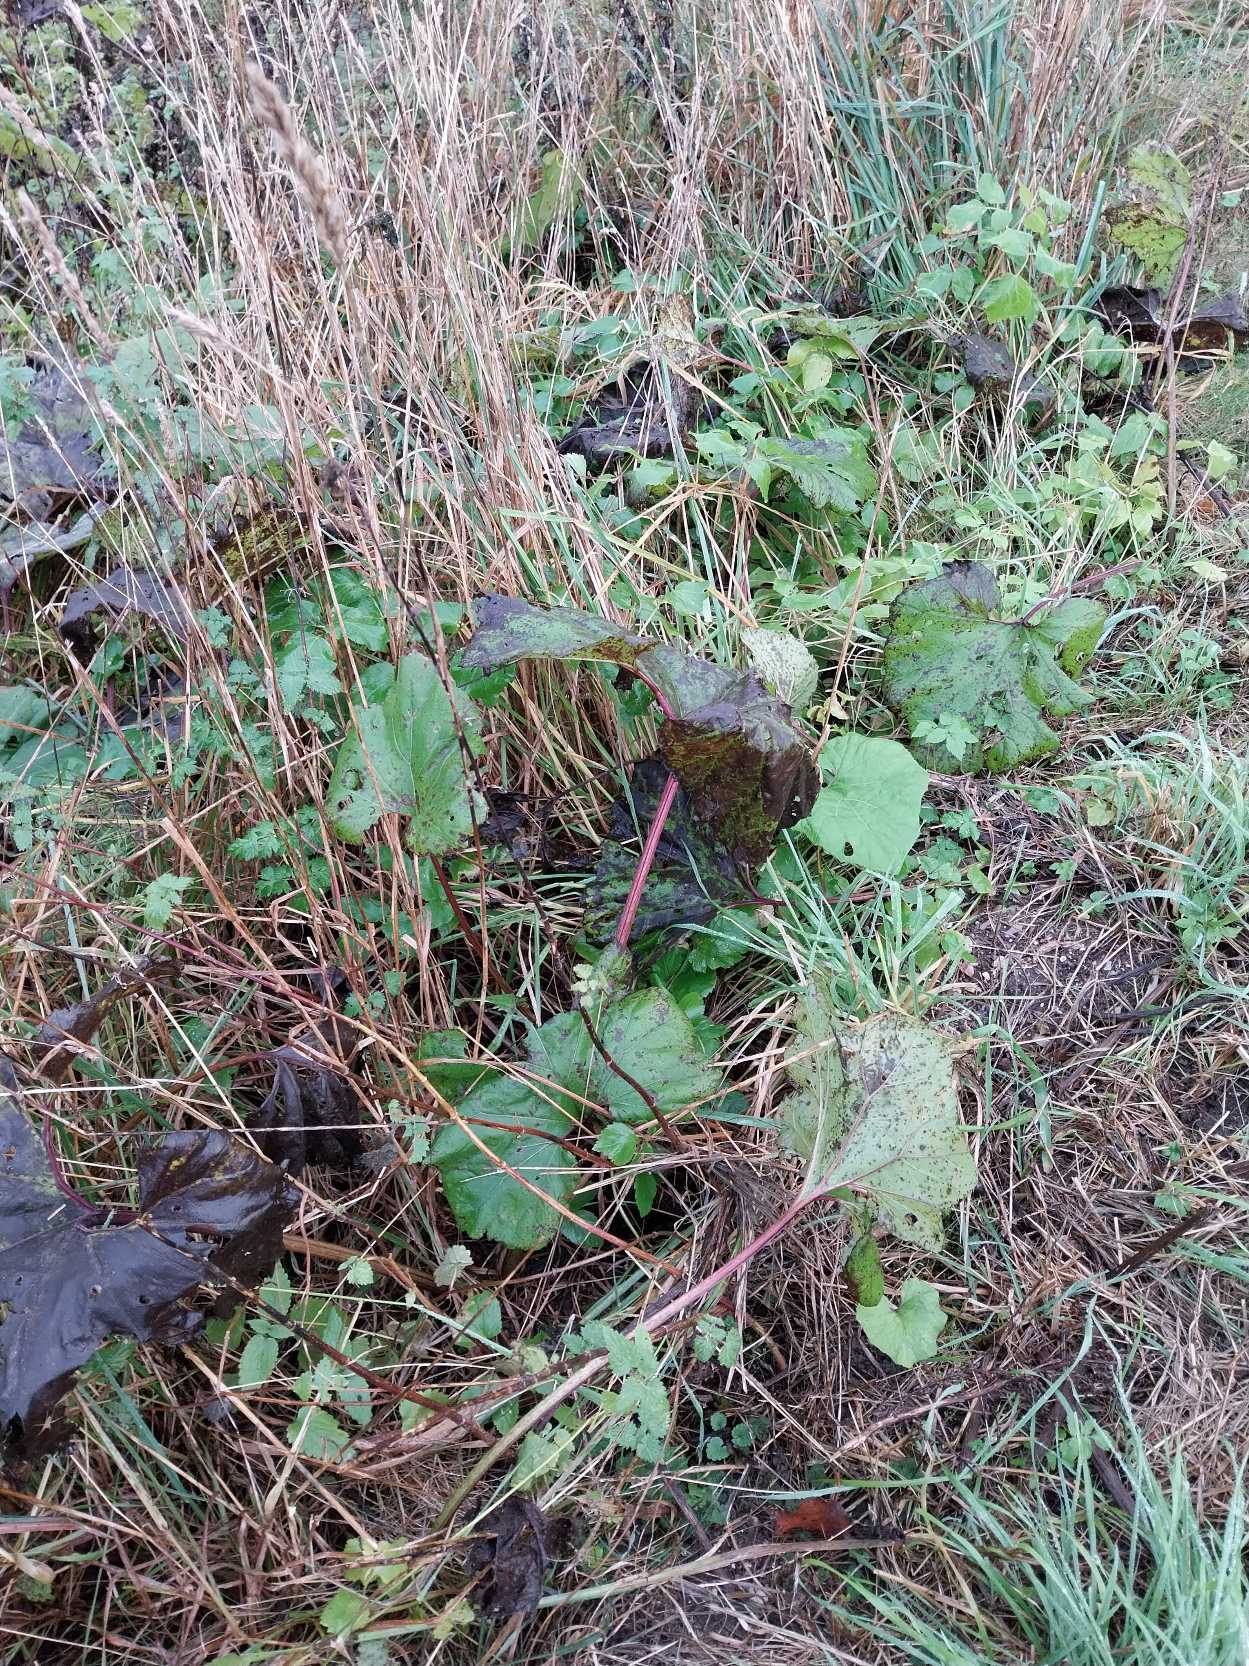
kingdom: Plantae
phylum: Tracheophyta
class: Magnoliopsida
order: Asterales
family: Asteraceae
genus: Petasites
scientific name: Petasites hybridus
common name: Rød hestehov
